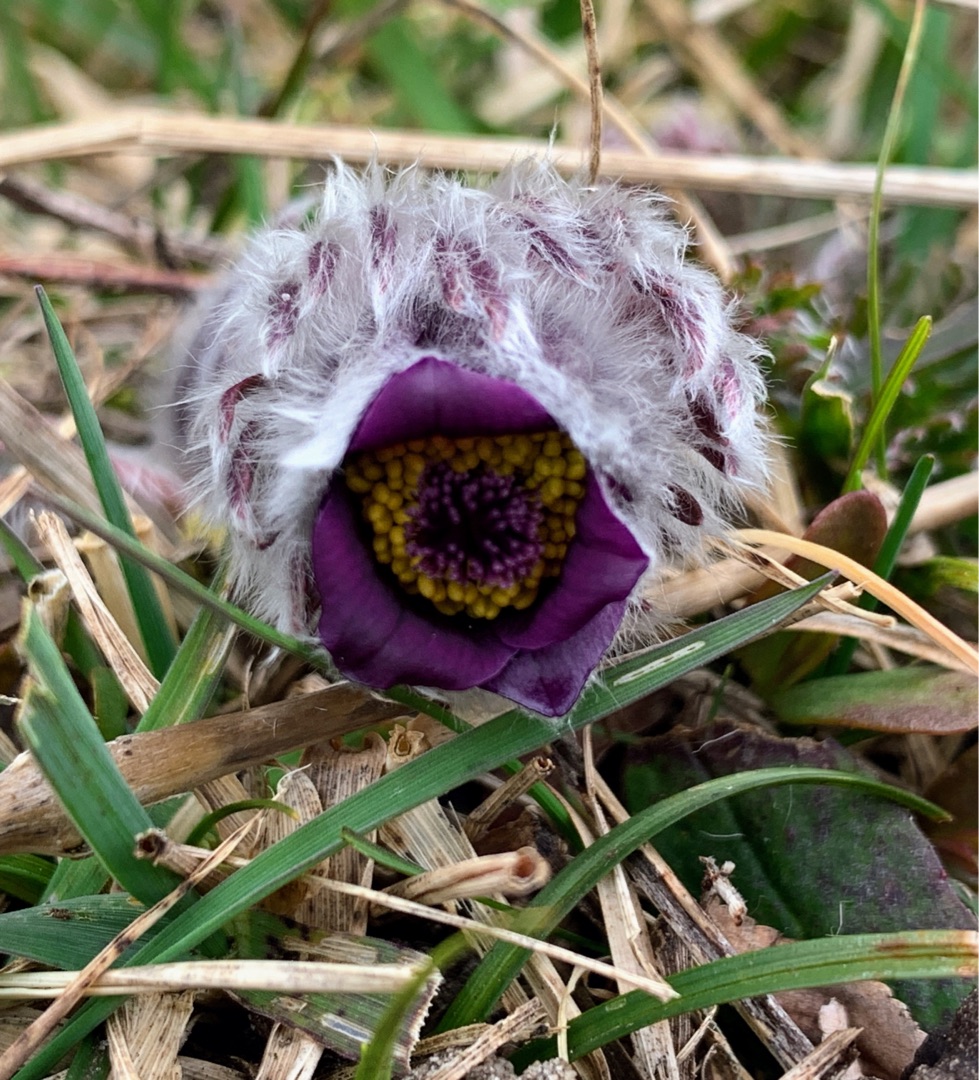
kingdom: Plantae
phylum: Tracheophyta
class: Magnoliopsida
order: Ranunculales
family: Ranunculaceae
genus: Pulsatilla
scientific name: Pulsatilla pratensis
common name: Nikkende kobjælde
